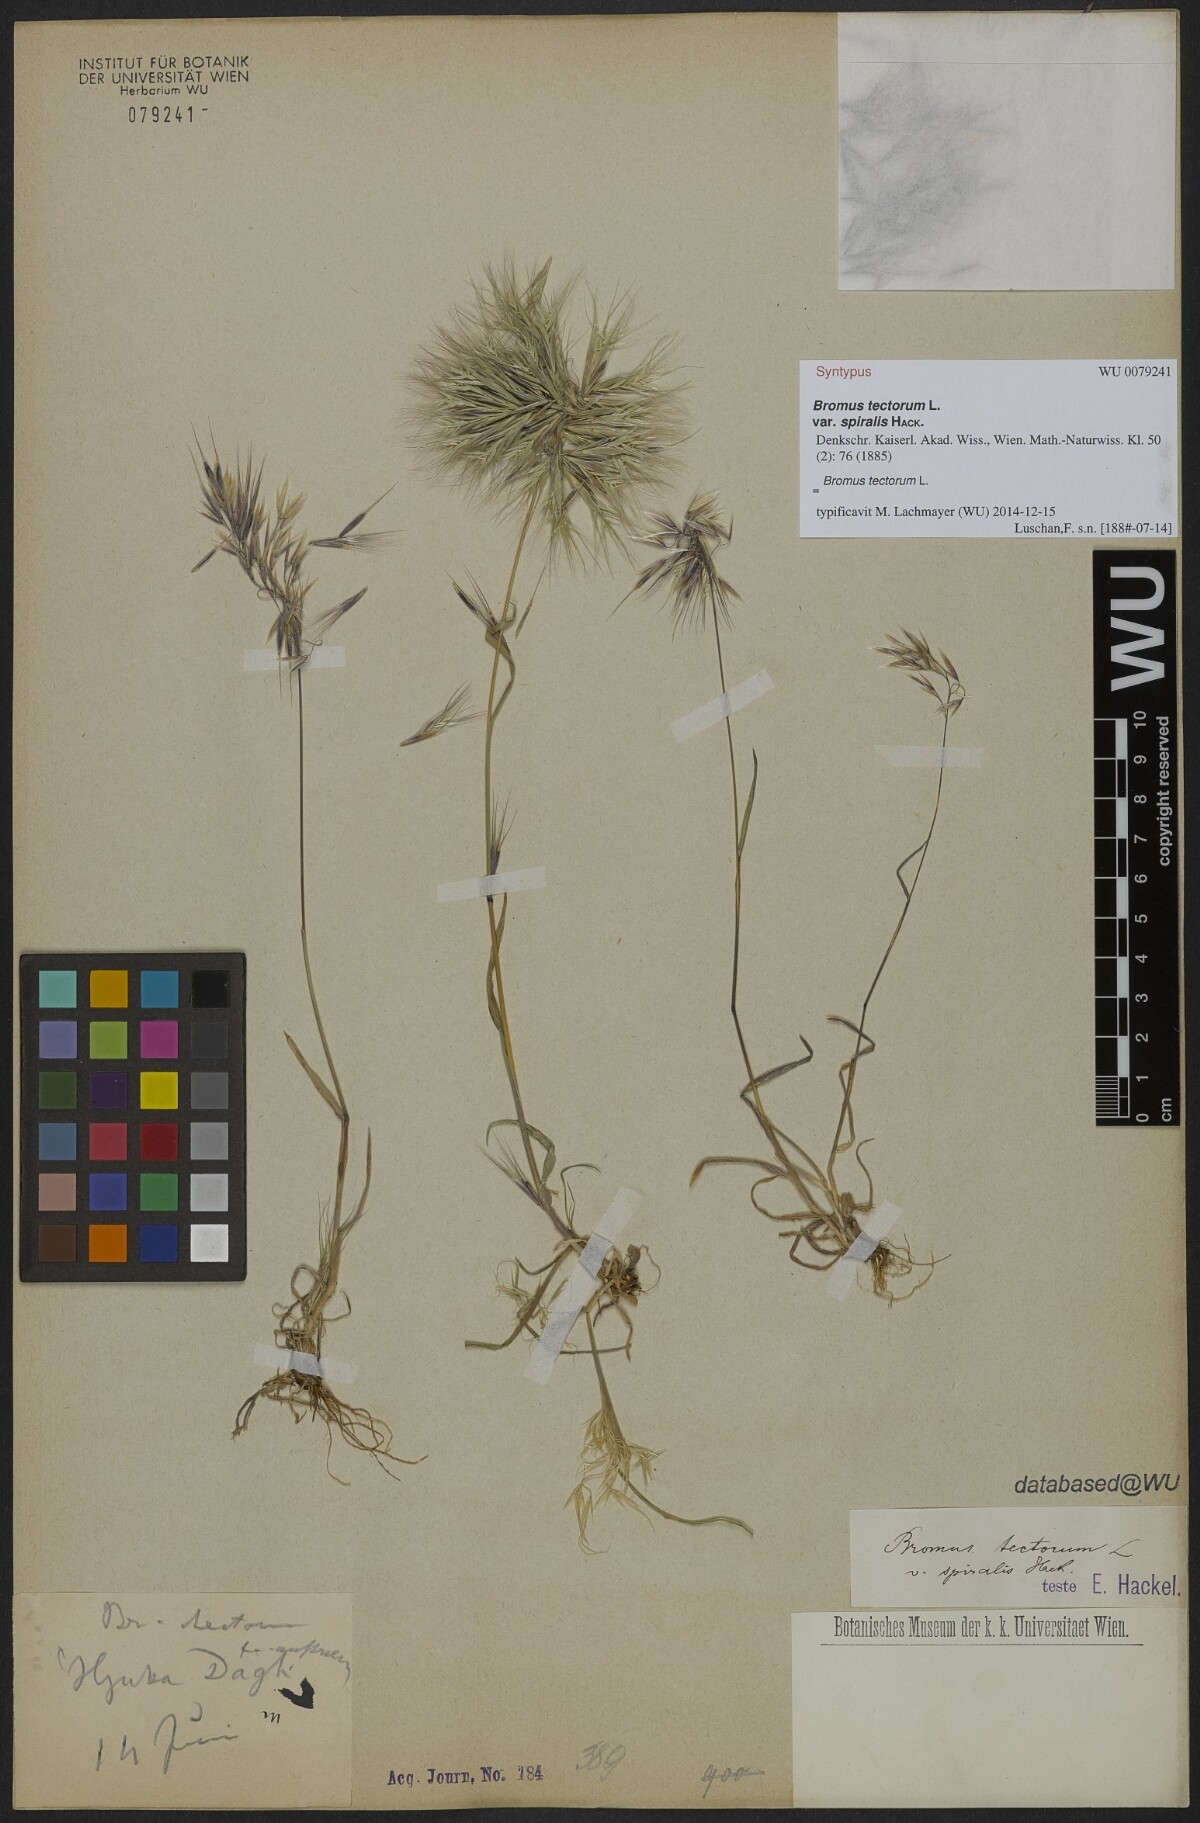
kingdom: Plantae
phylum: Tracheophyta
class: Liliopsida
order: Poales
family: Poaceae
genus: Bromus
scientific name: Bromus tectorum
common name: Cheatgrass
